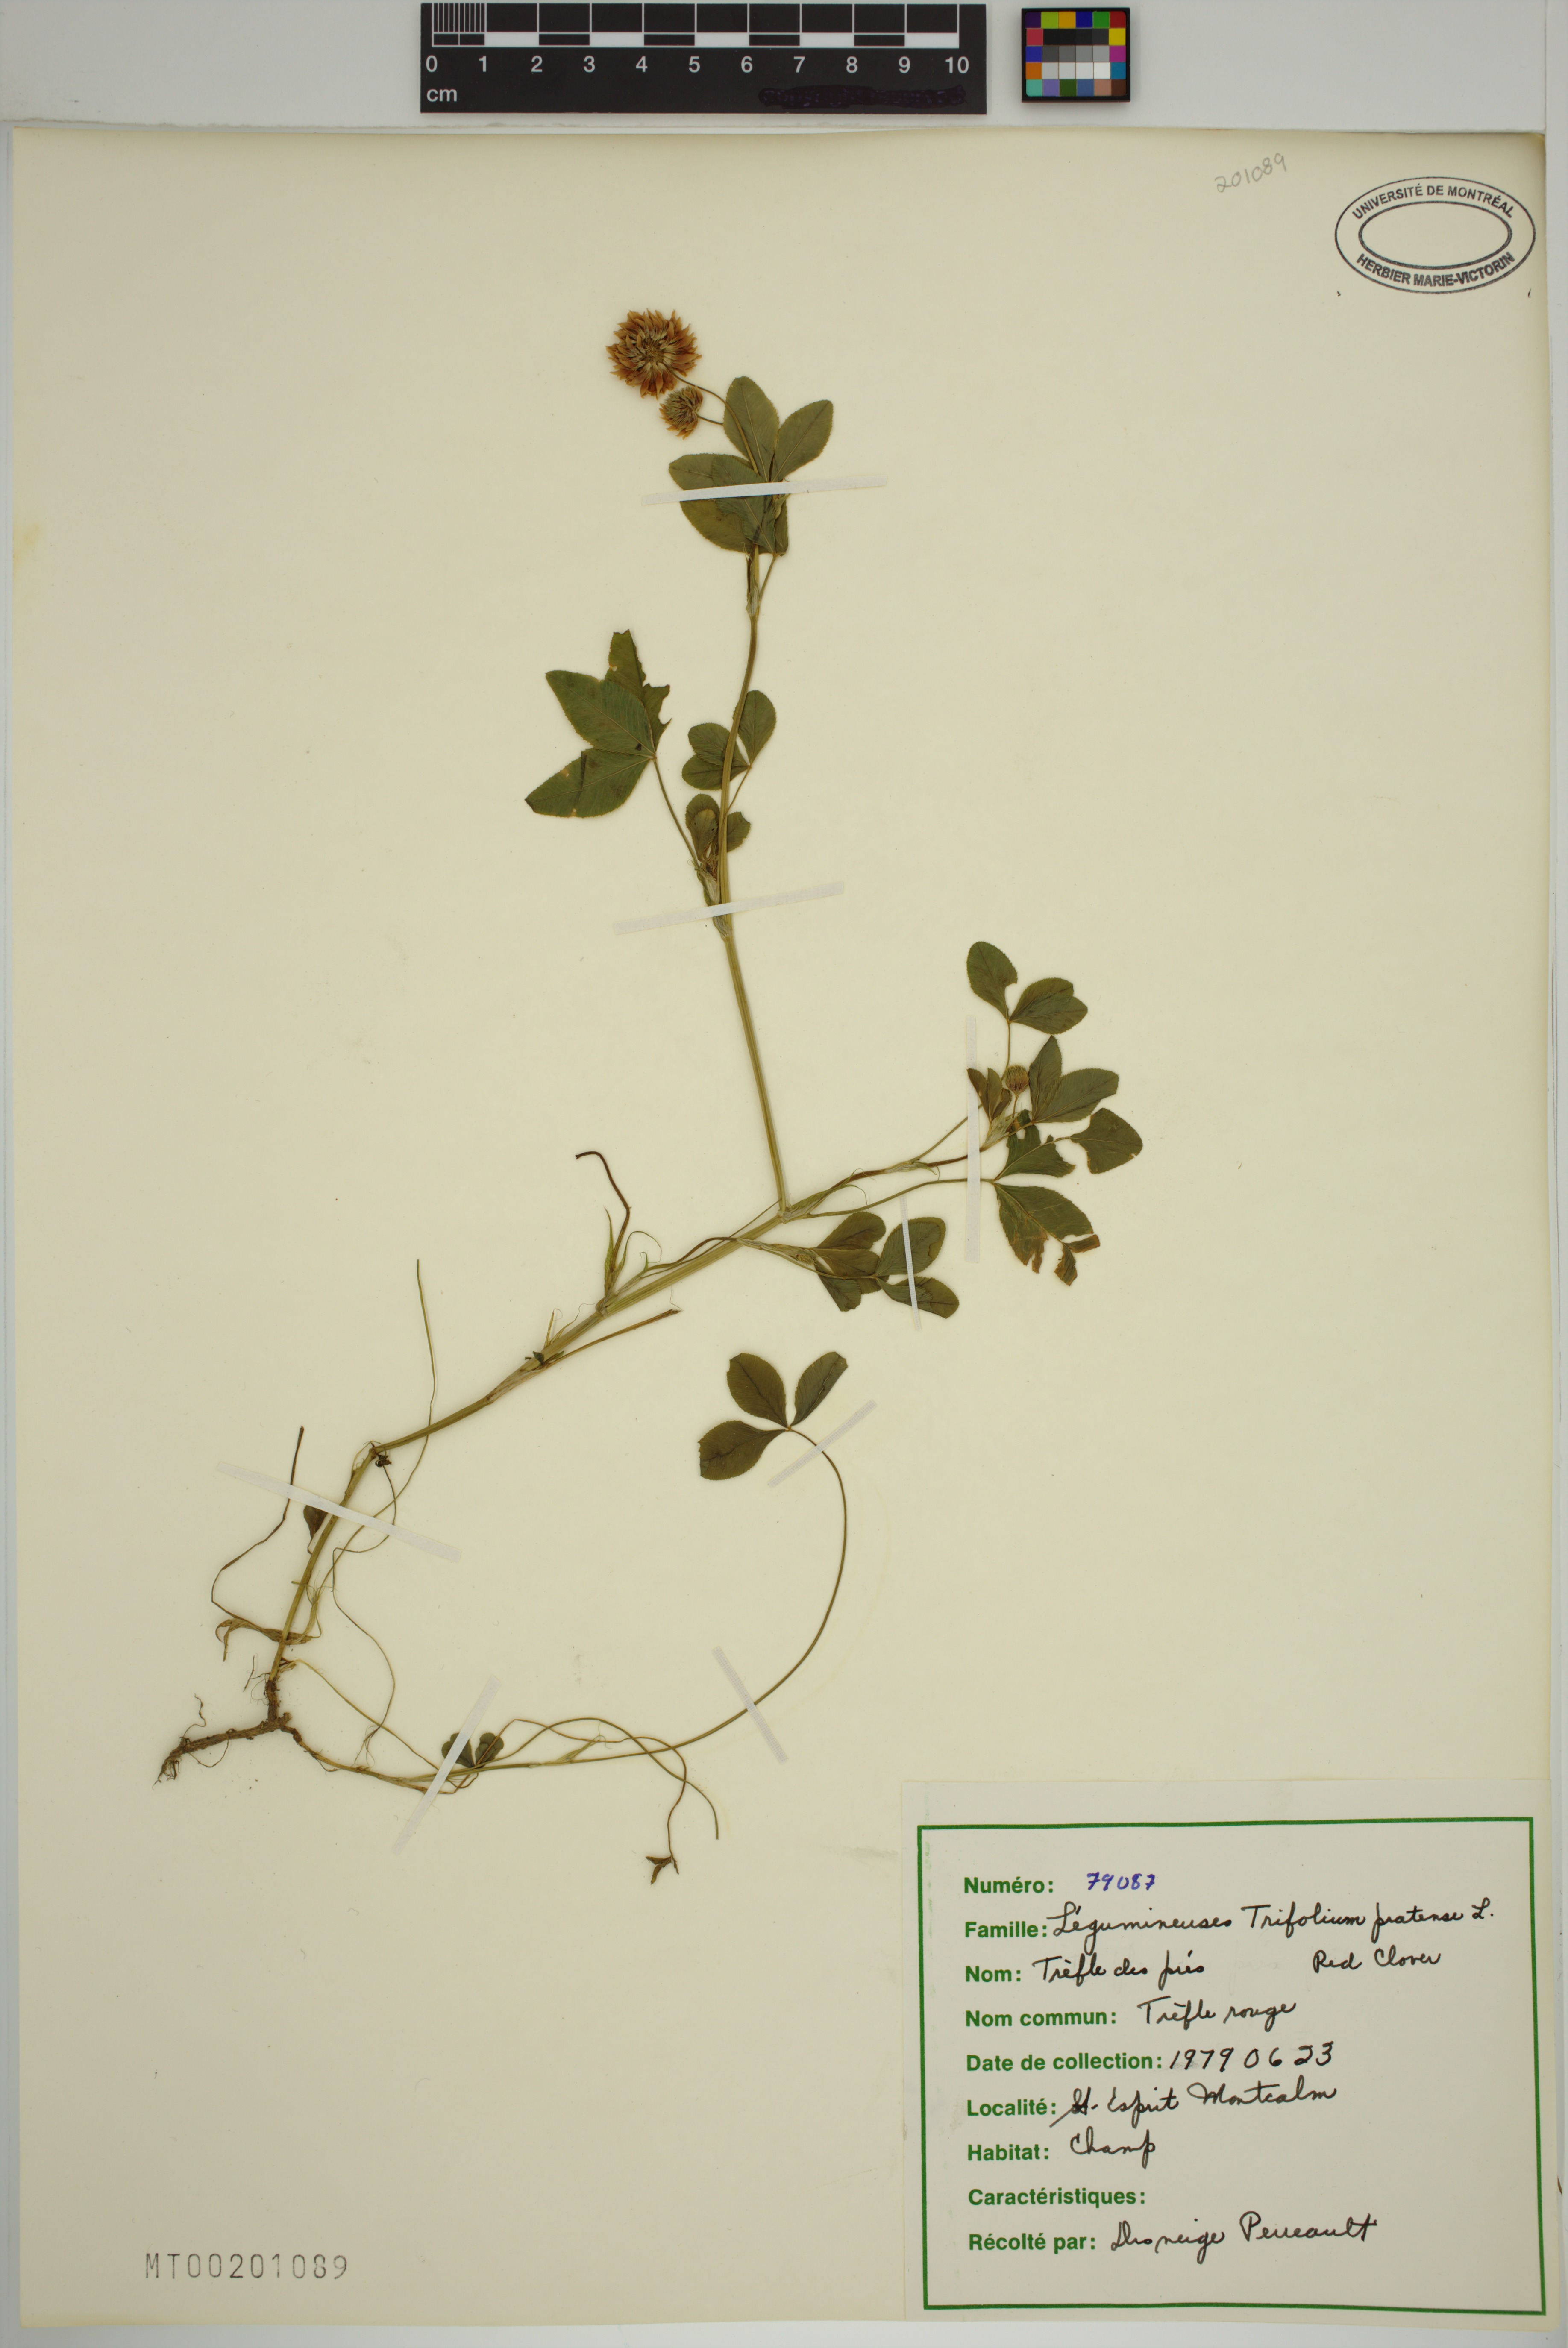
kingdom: Plantae
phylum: Tracheophyta
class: Magnoliopsida
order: Fabales
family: Fabaceae
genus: Trifolium
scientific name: Trifolium pratense
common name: Red clover
